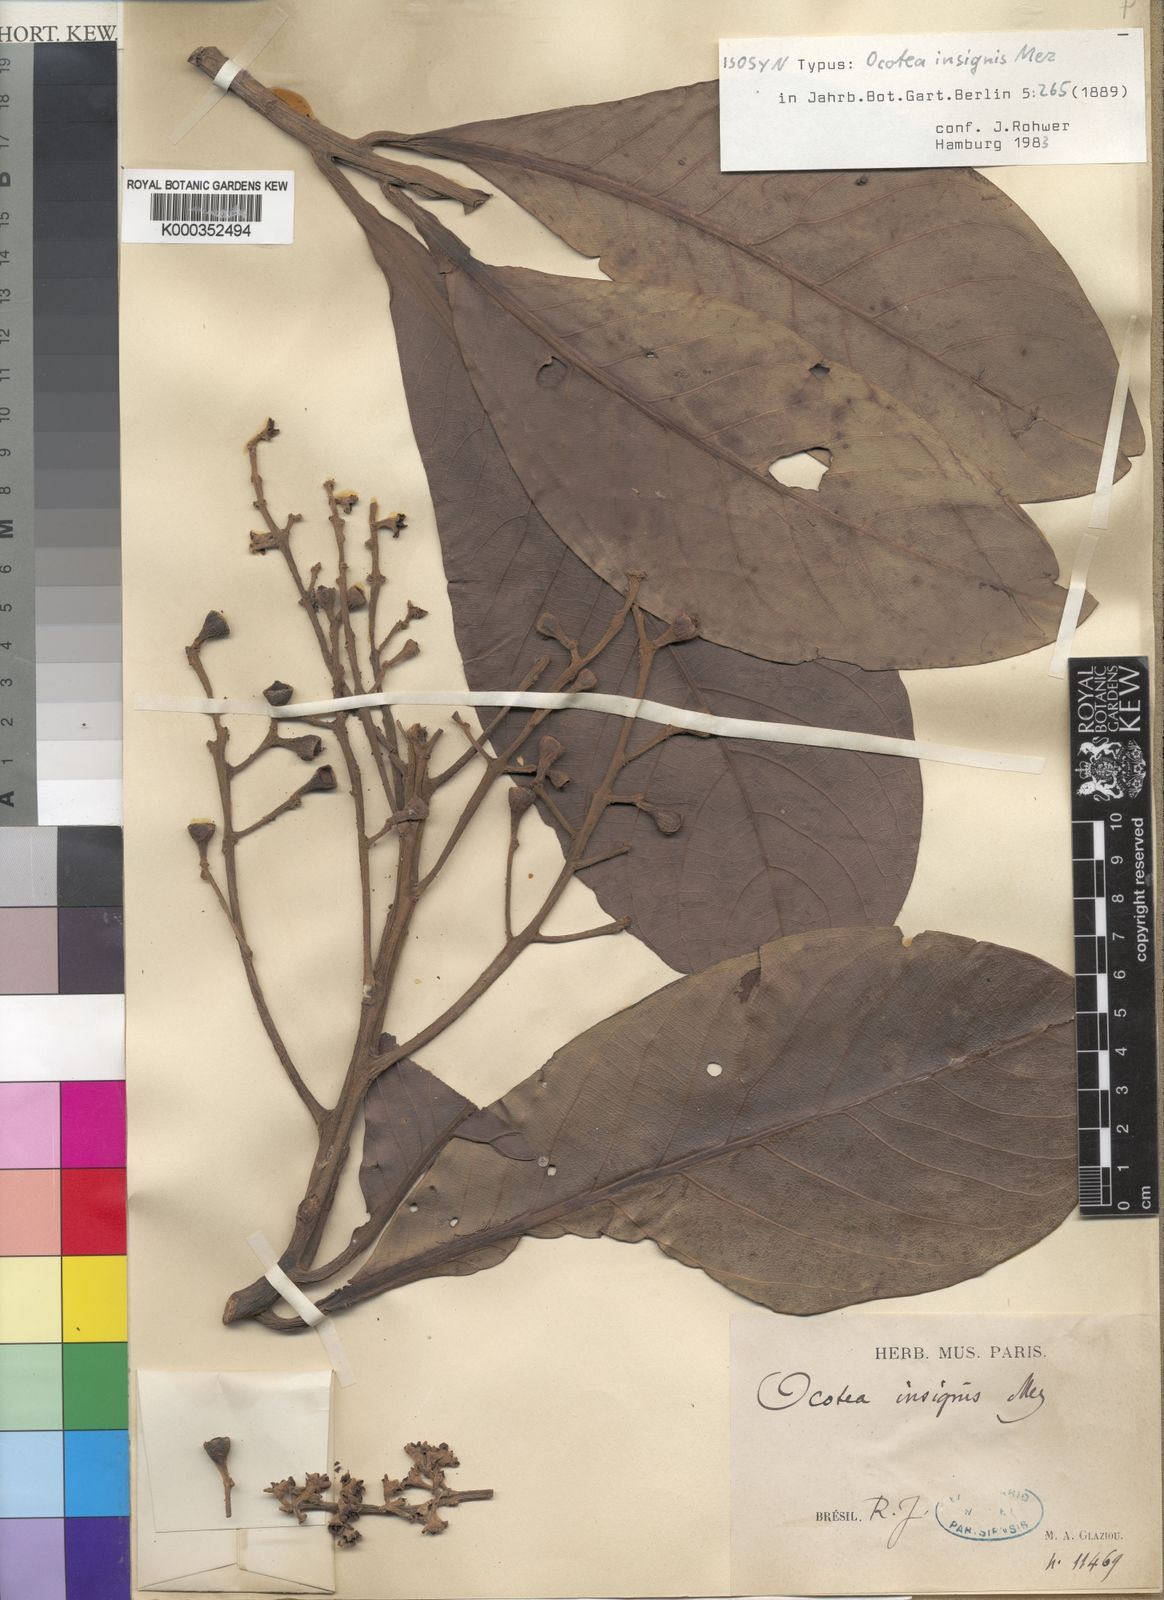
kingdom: Plantae
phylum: Tracheophyta
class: Magnoliopsida
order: Laurales
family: Lauraceae
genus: Ocotea
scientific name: Ocotea insignis
